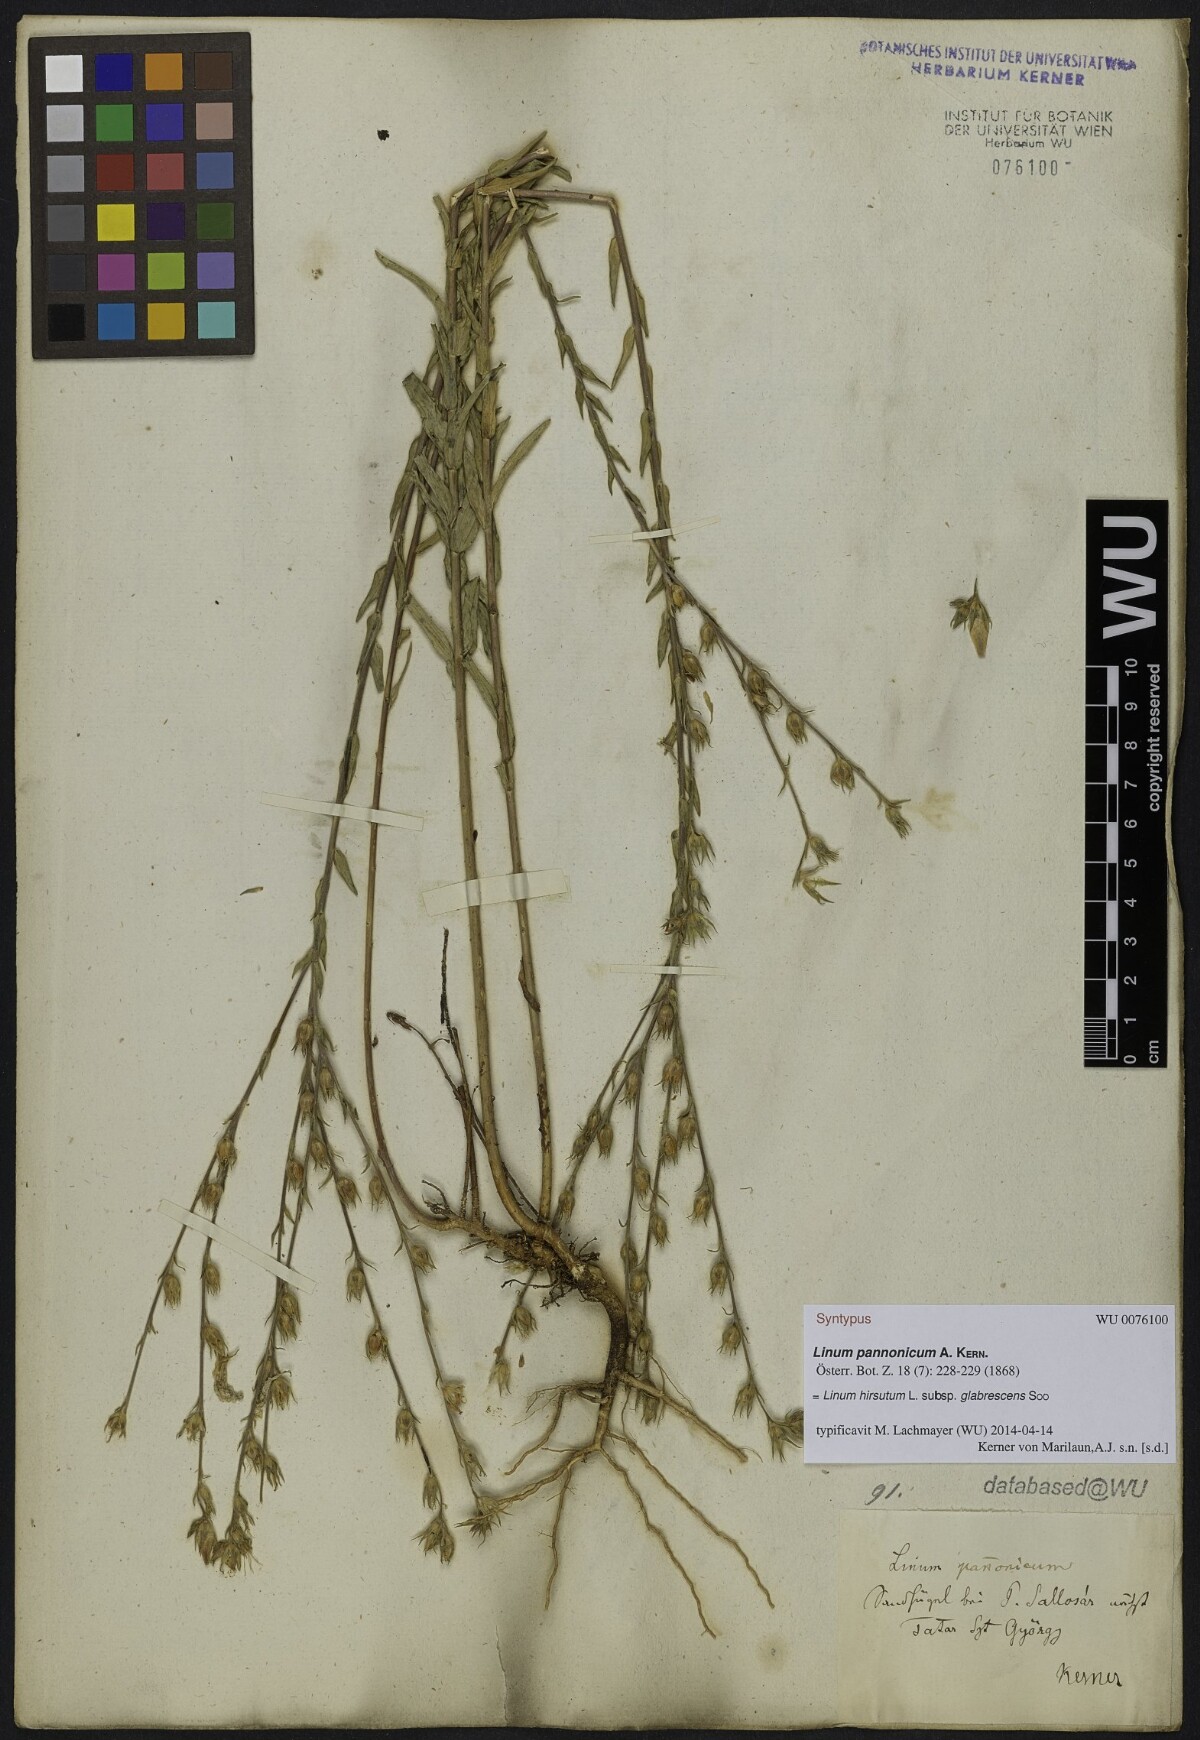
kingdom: Plantae
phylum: Tracheophyta
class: Magnoliopsida
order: Malpighiales
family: Linaceae
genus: Linum
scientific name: Linum hirsutum
